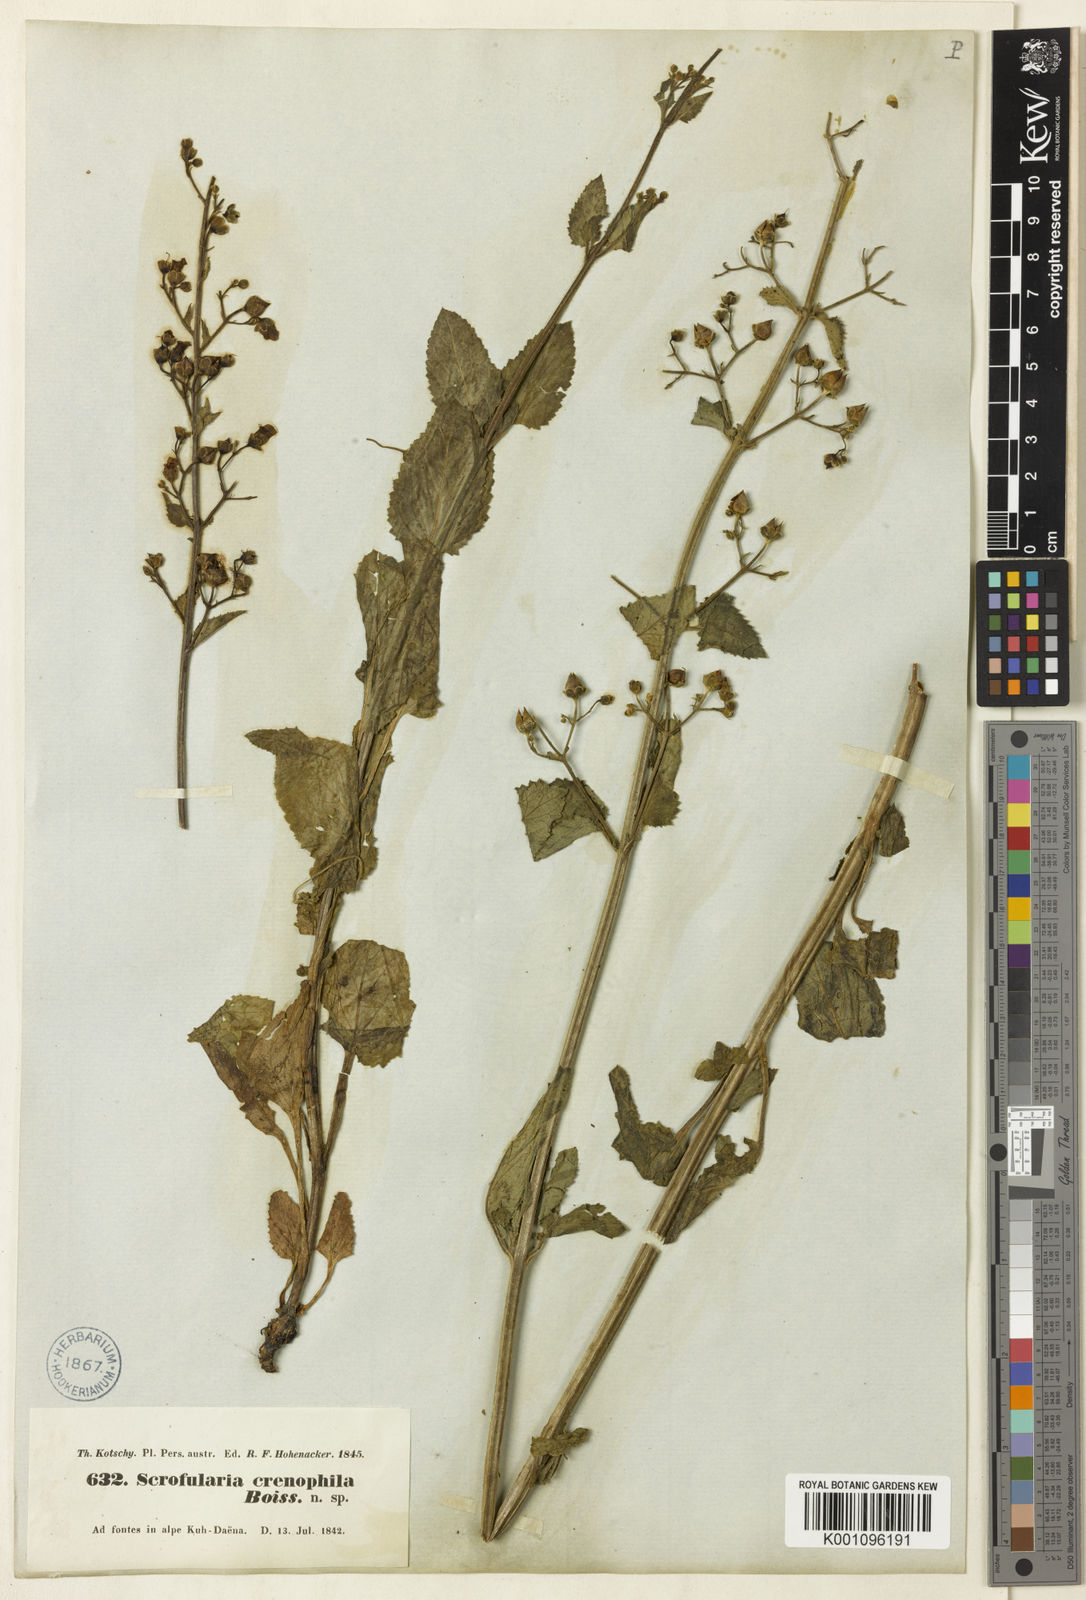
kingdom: Plantae
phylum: Tracheophyta
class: Magnoliopsida
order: Lamiales
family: Scrophulariaceae
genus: Scrophularia
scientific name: Scrophularia crenophila
